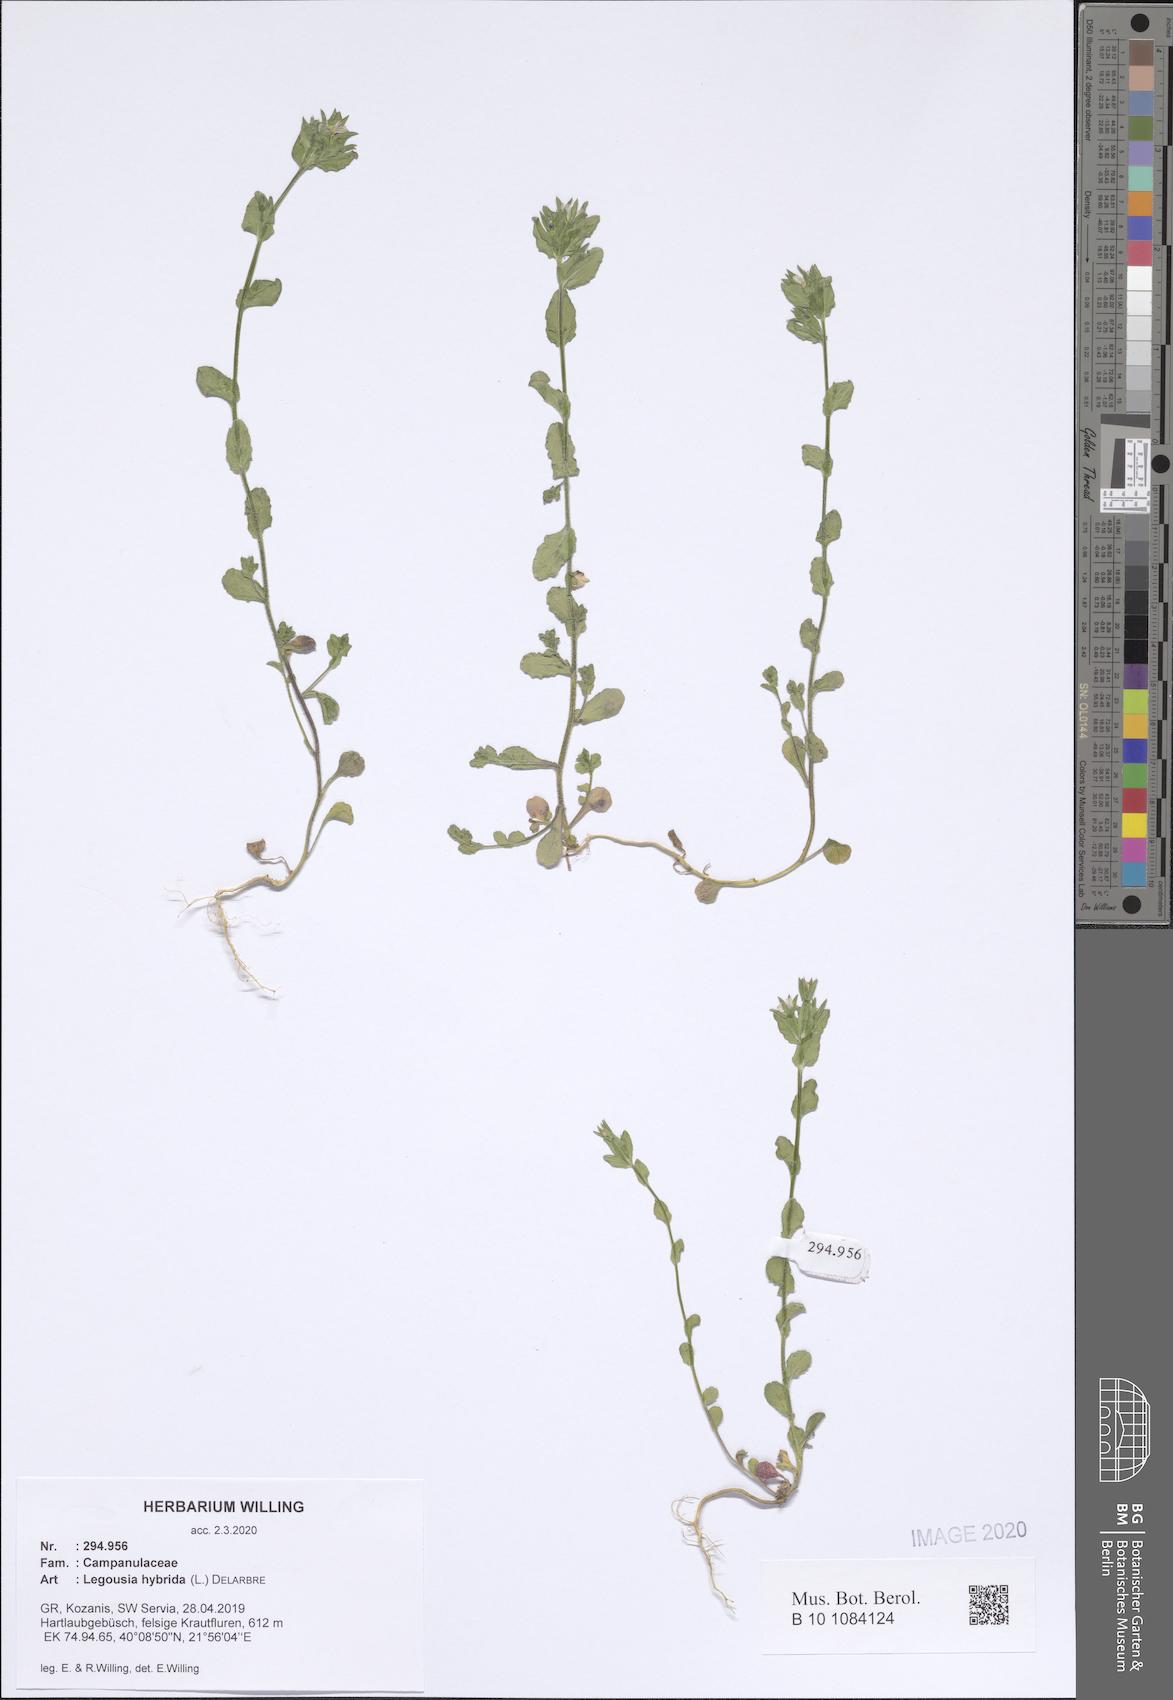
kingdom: Plantae
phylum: Tracheophyta
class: Magnoliopsida
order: Asterales
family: Campanulaceae
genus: Legousia
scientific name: Legousia hybrida
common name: Venus's-looking-glass
